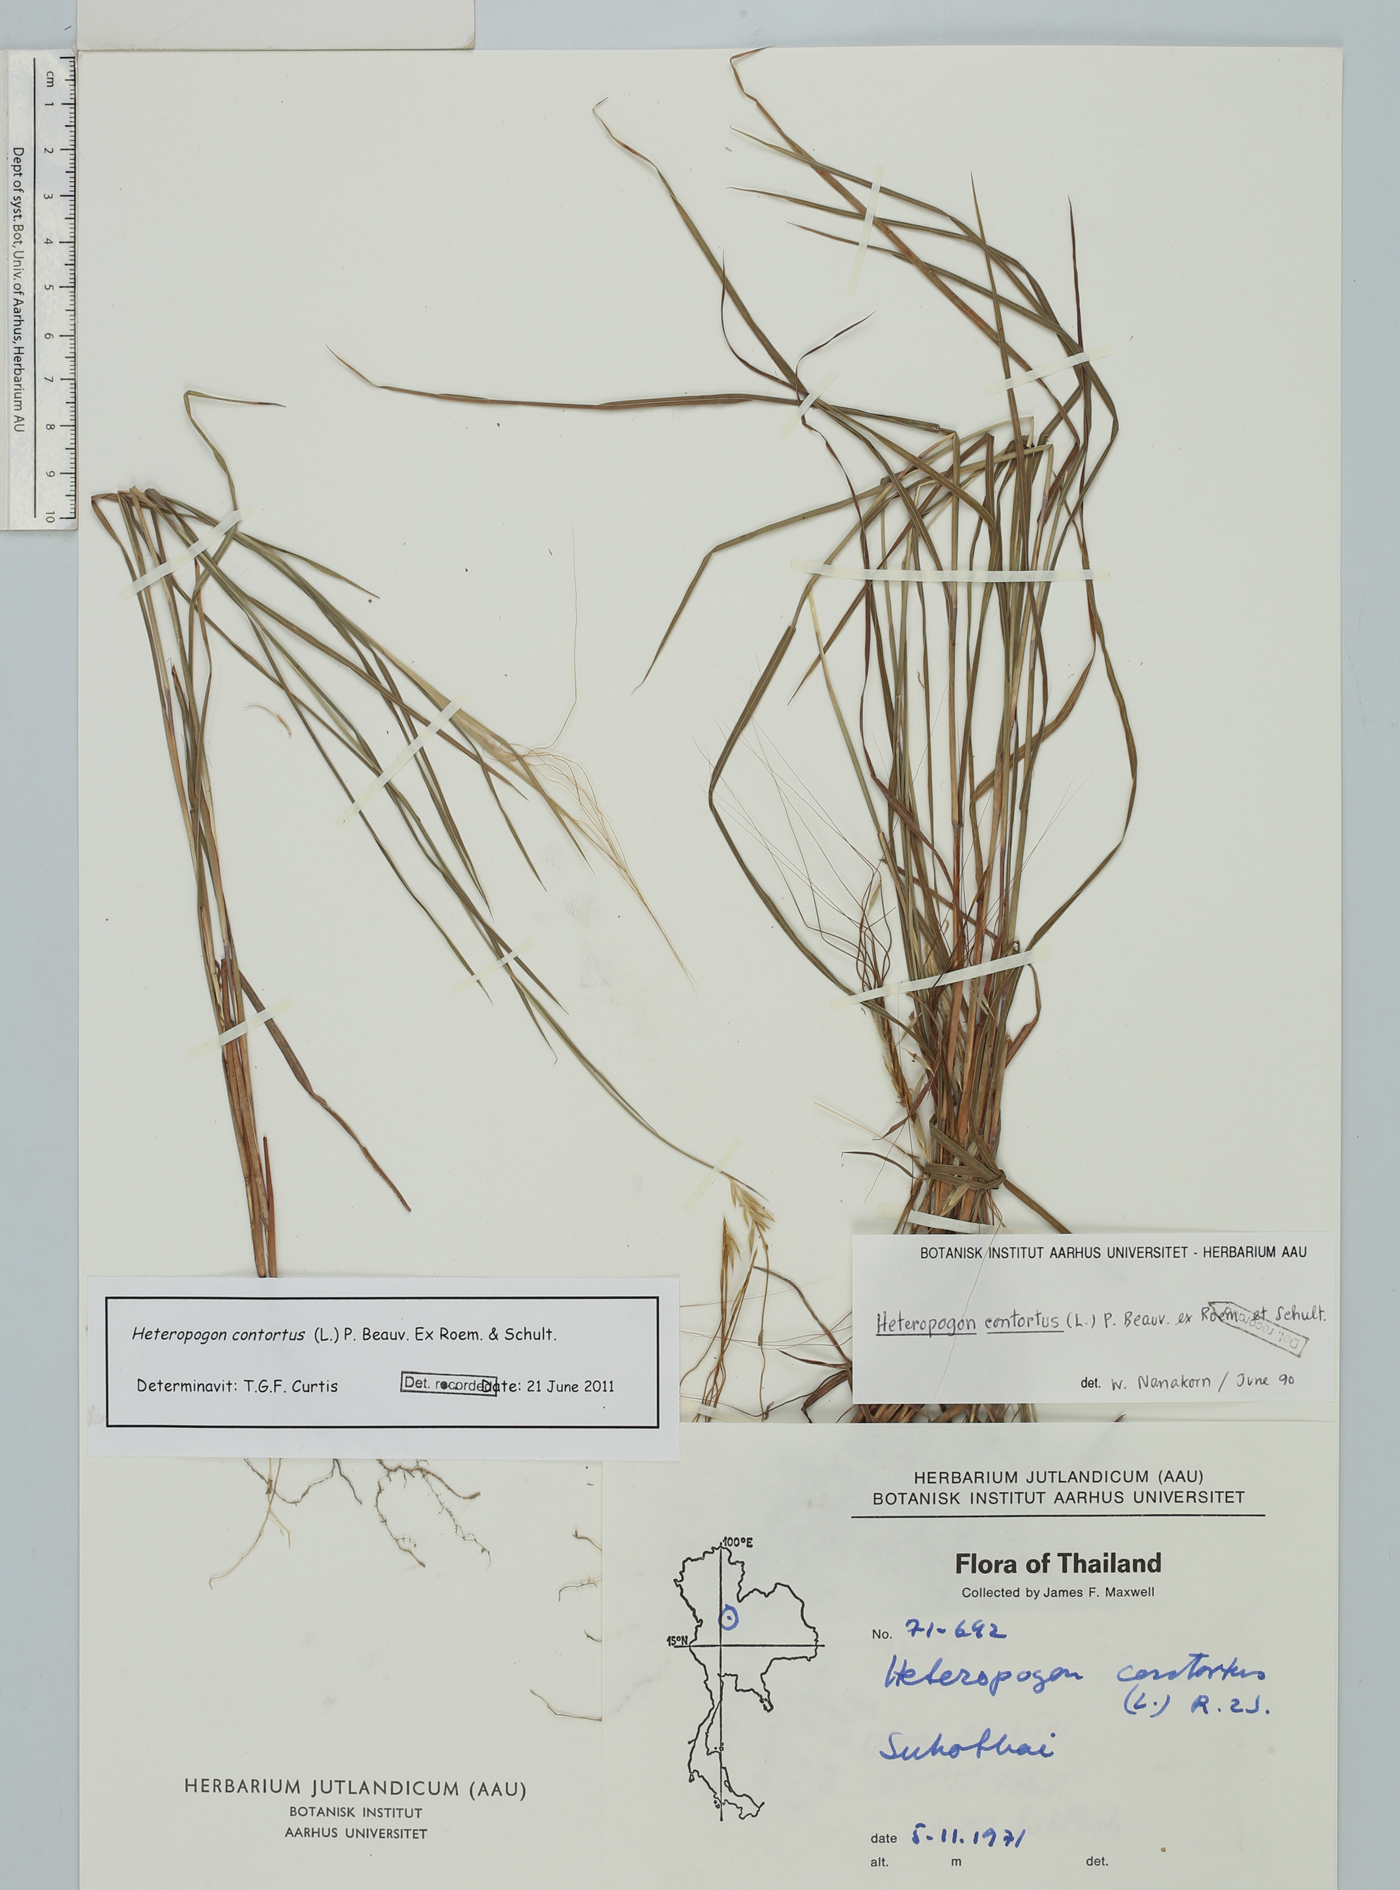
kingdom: Plantae
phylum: Tracheophyta
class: Liliopsida
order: Poales
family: Poaceae
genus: Heteropogon
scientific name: Heteropogon contortus
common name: Tanglehead
